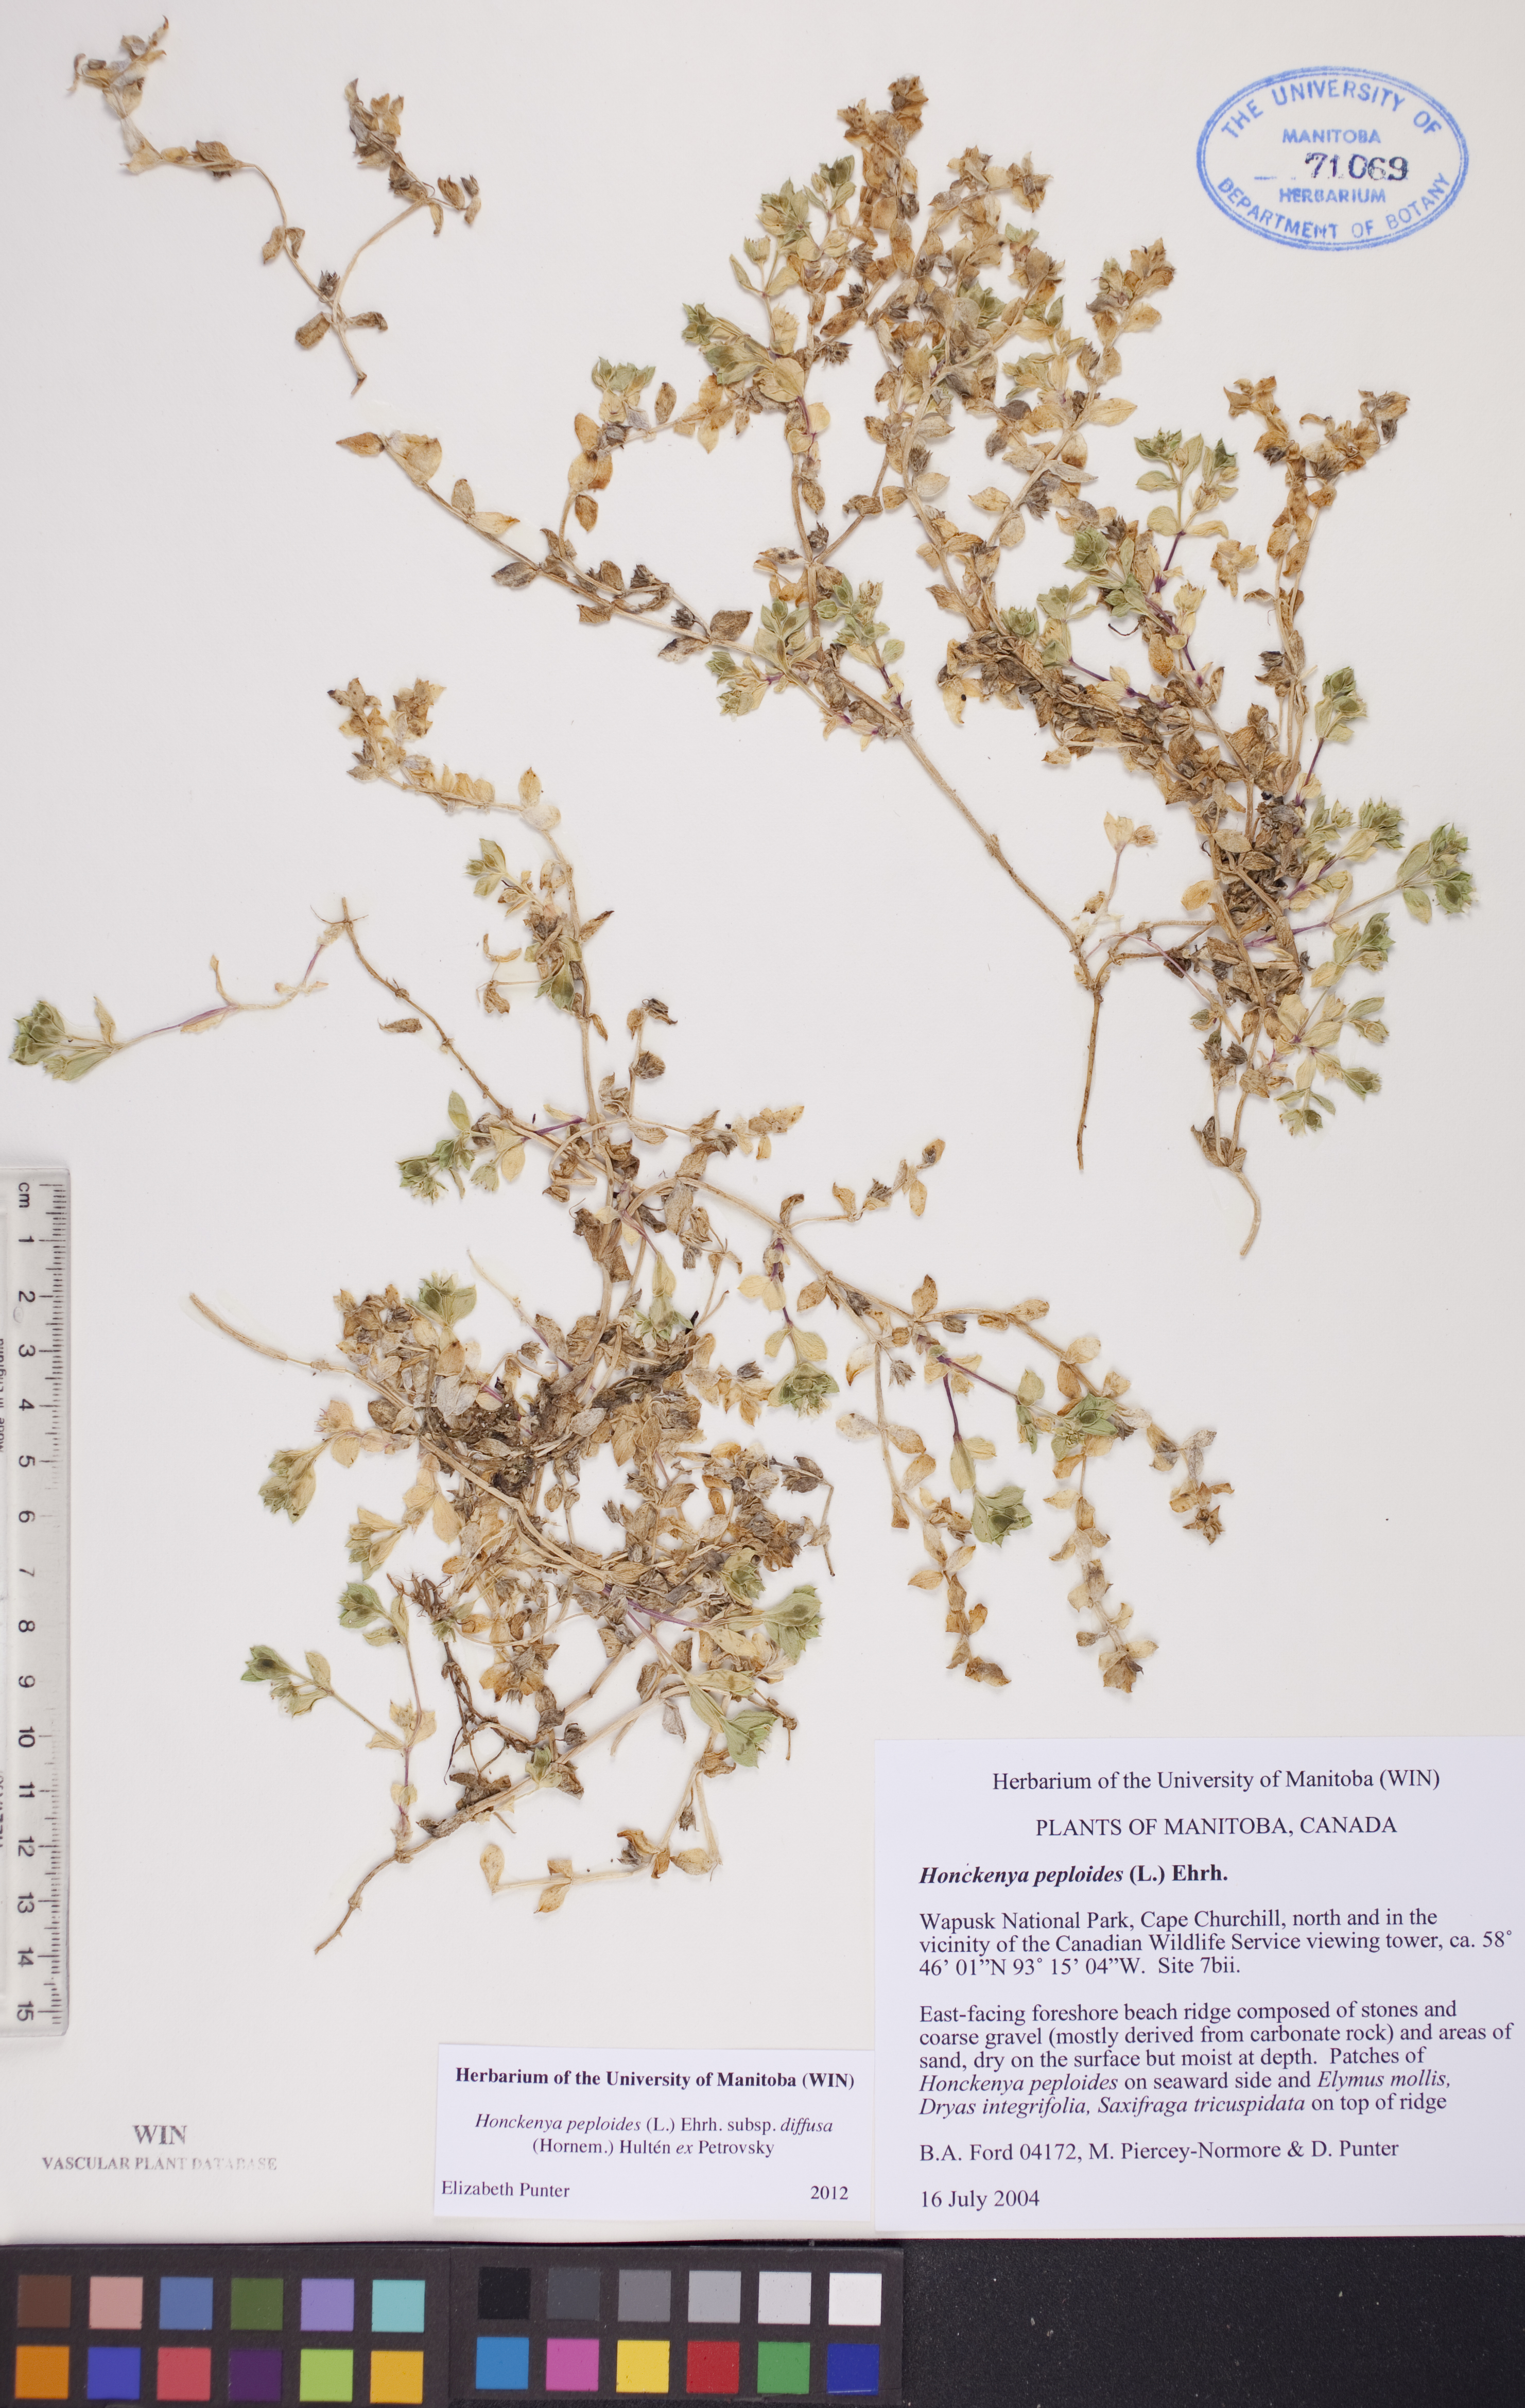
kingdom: Plantae
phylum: Tracheophyta
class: Magnoliopsida
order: Caryophyllales
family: Caryophyllaceae
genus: Honckenya
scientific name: Honckenya peploides
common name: Sea sandwort
